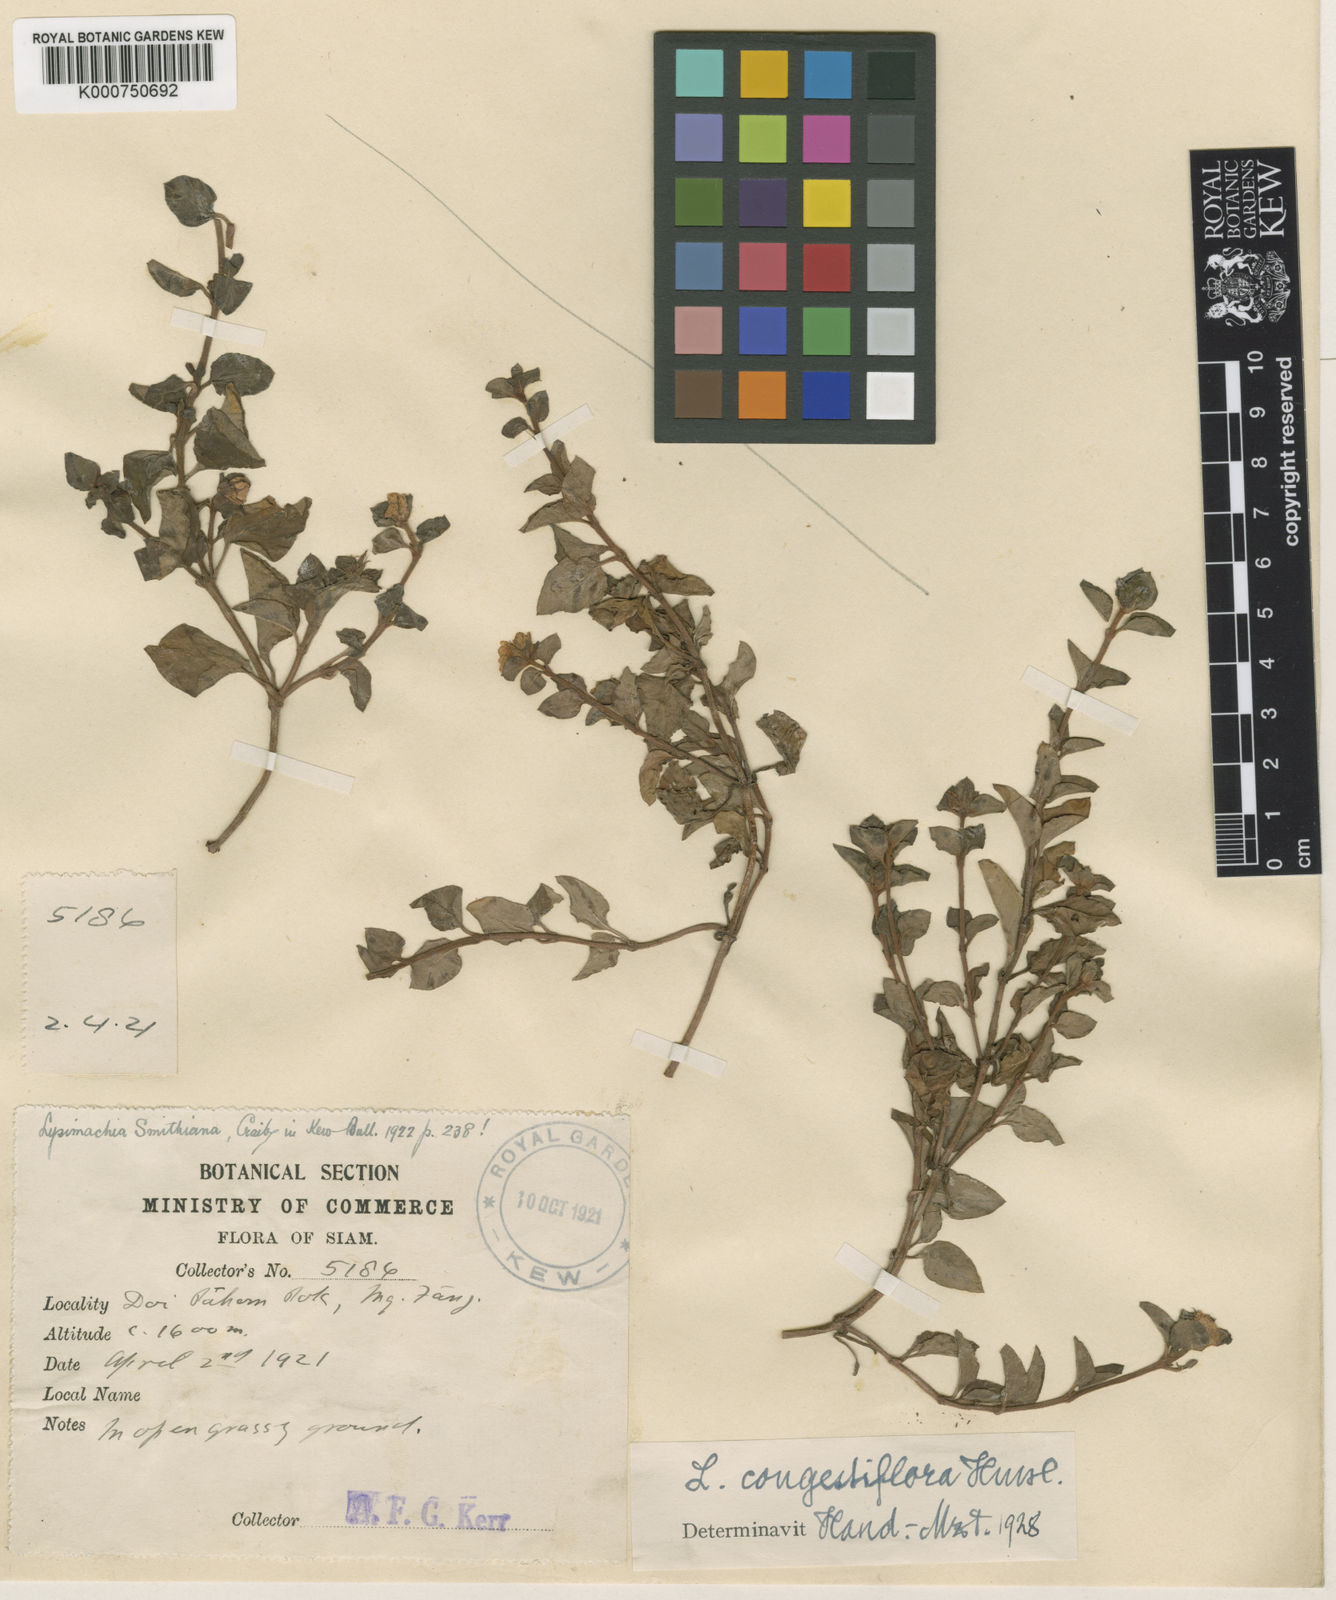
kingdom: Plantae
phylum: Tracheophyta
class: Magnoliopsida
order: Ericales
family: Primulaceae
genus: Lysimachia
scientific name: Lysimachia congestiflora
